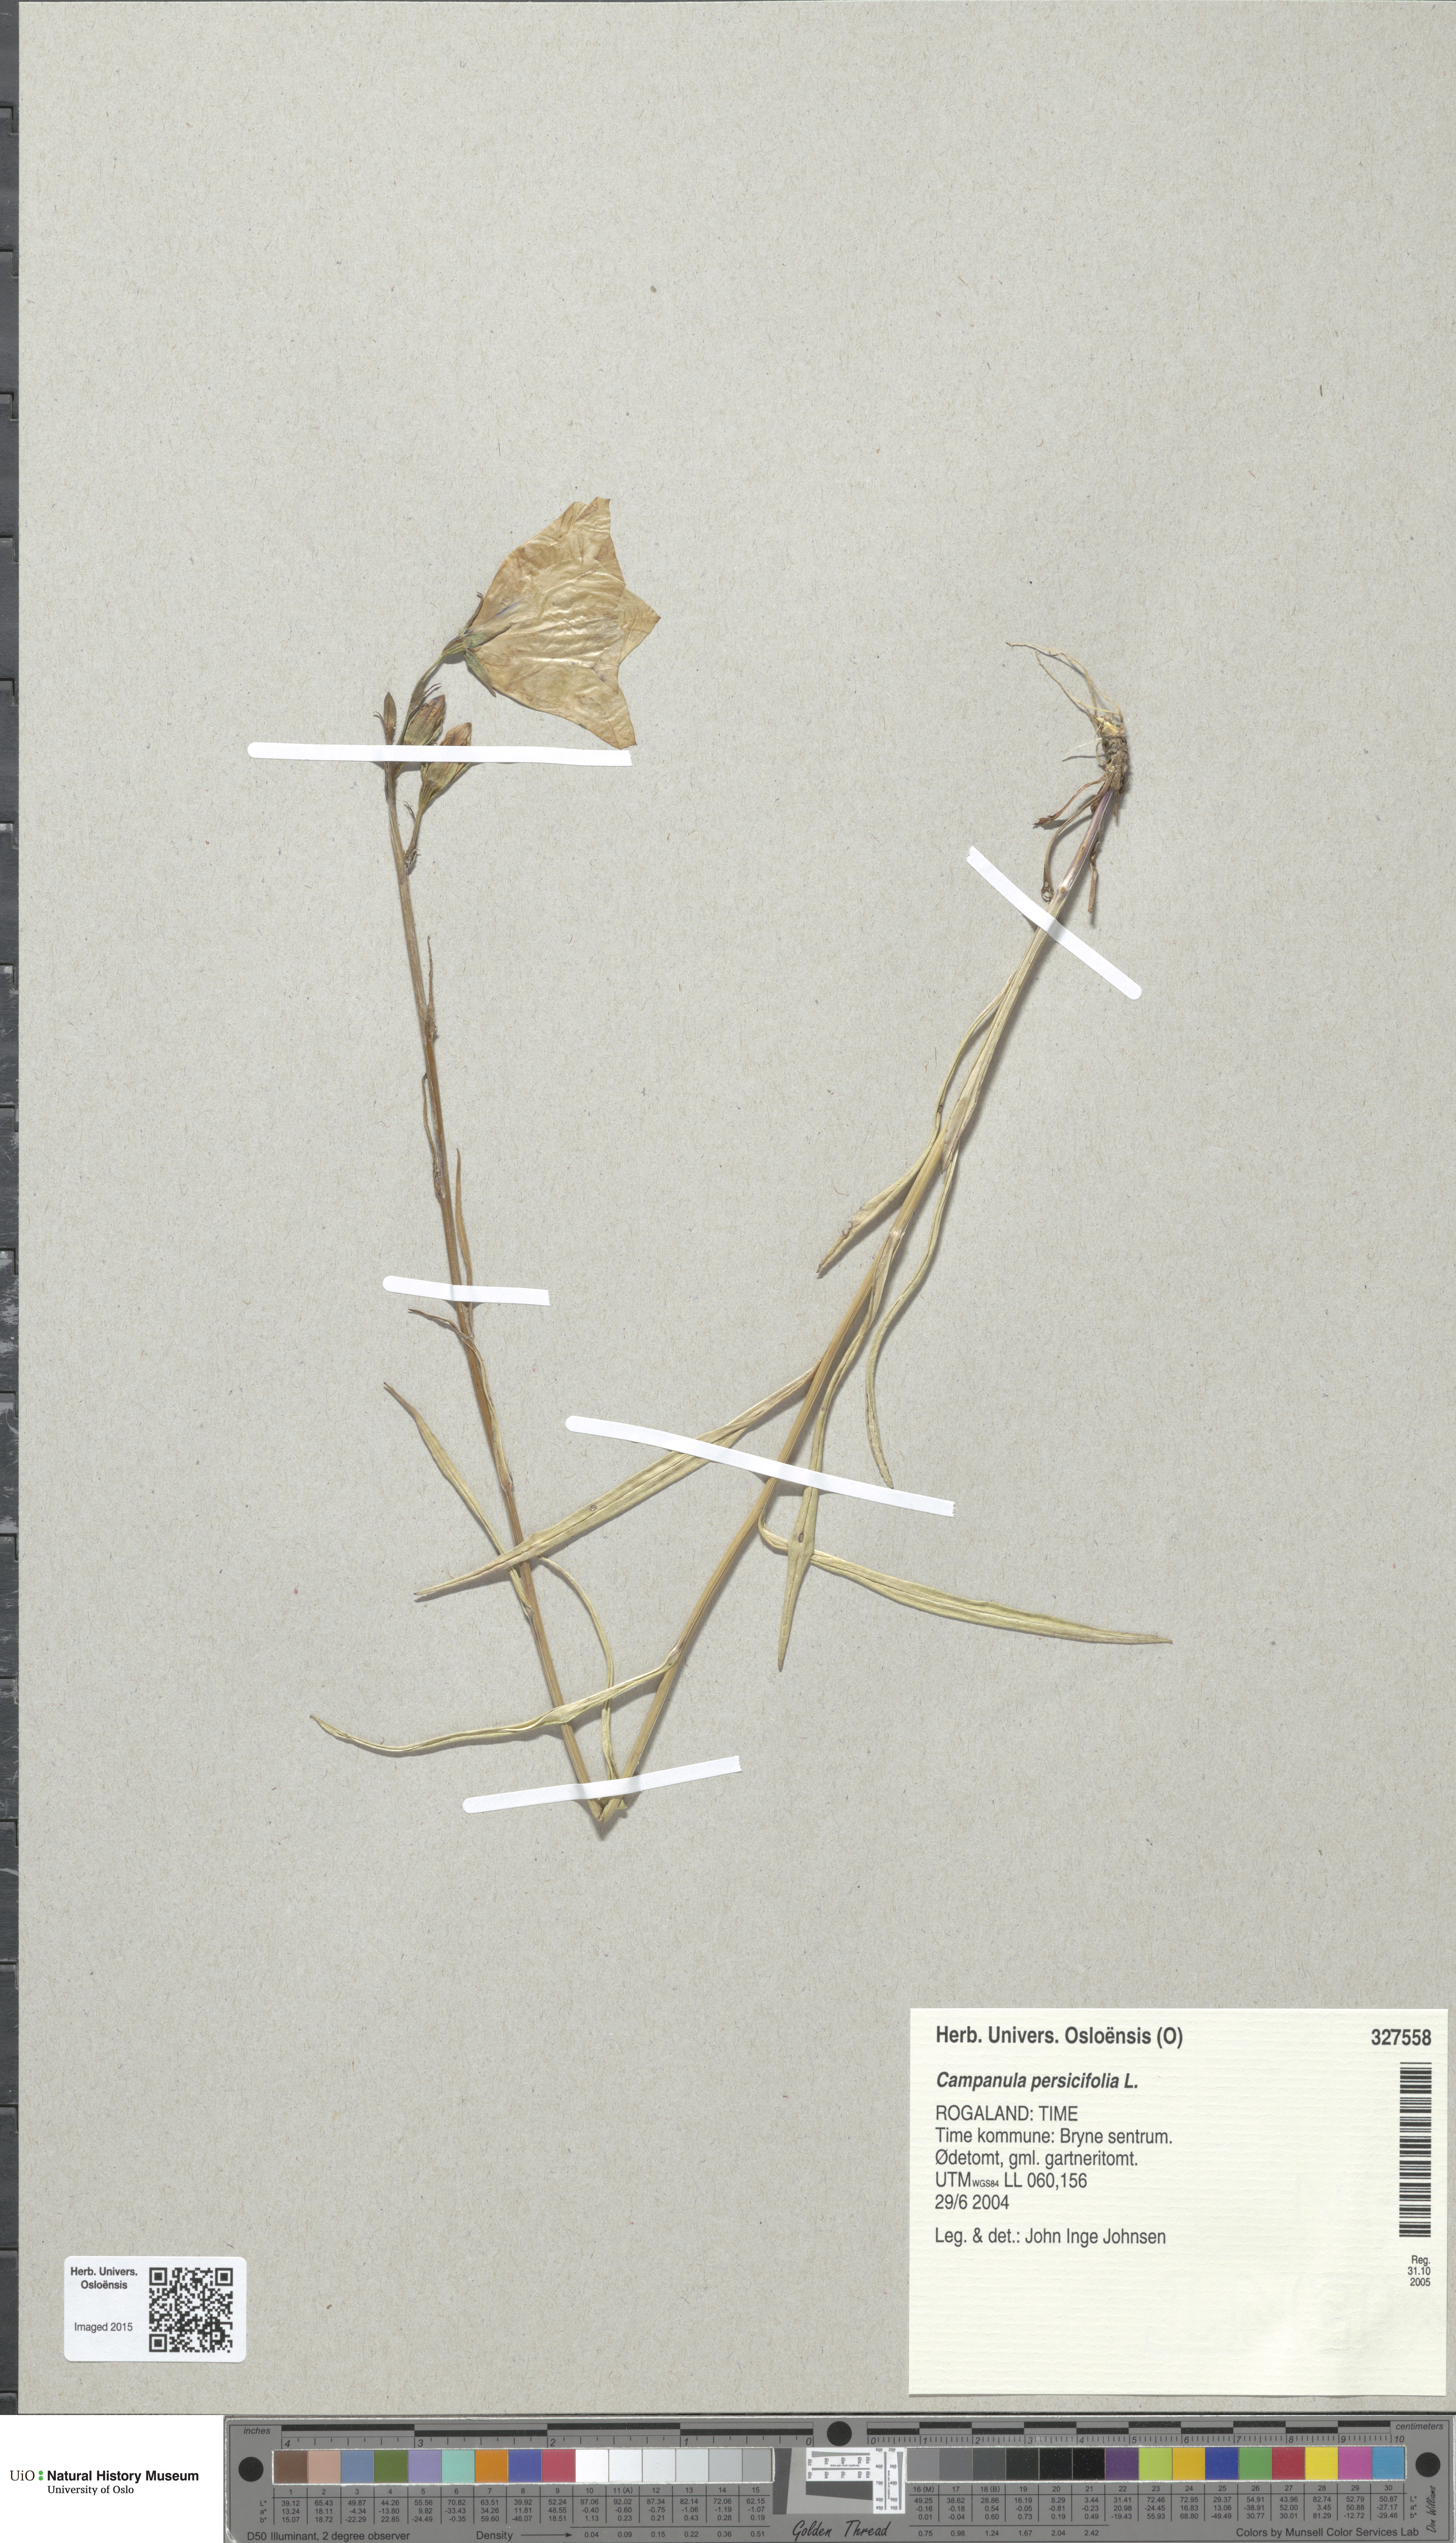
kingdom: Plantae
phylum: Tracheophyta
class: Magnoliopsida
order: Asterales
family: Campanulaceae
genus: Campanula
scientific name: Campanula persicifolia
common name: Peach-leaved bellflower
